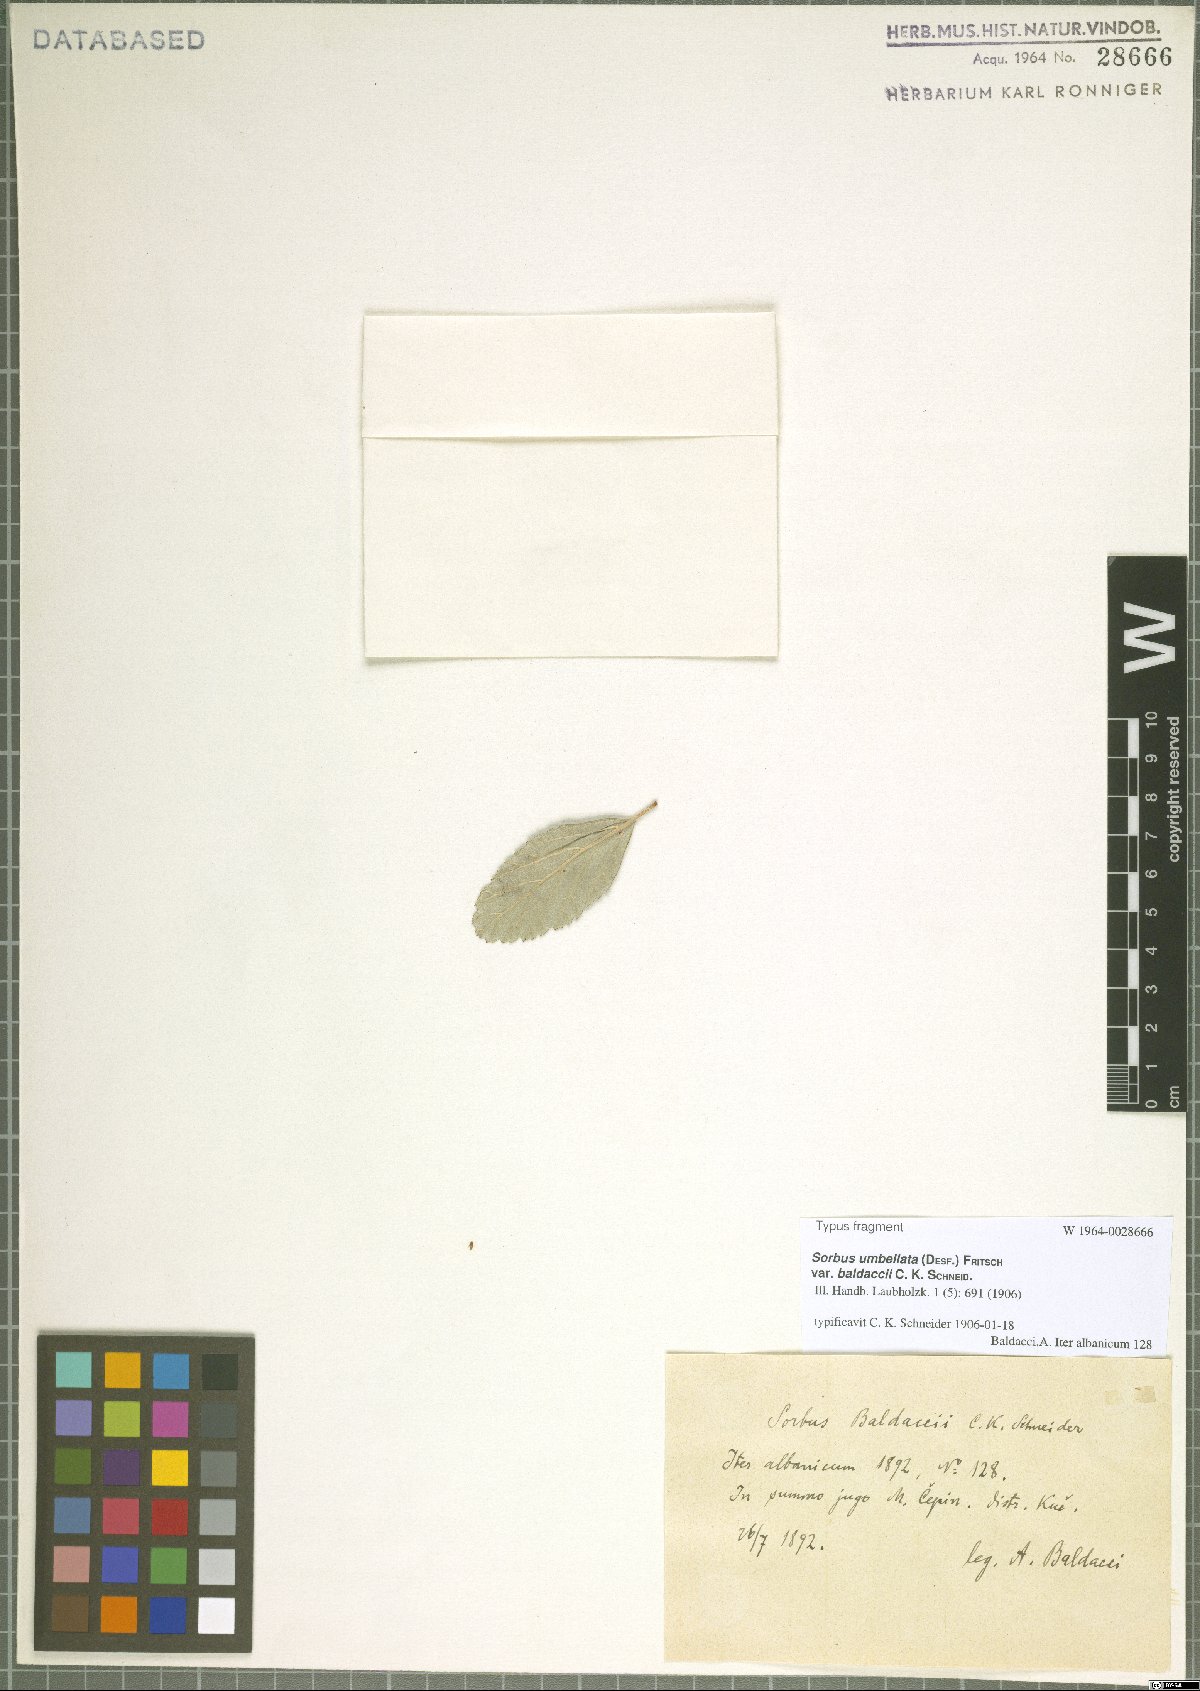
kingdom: Plantae
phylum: Tracheophyta
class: Magnoliopsida
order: Rosales
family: Rosaceae
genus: Aria
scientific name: Aria baldaccii
